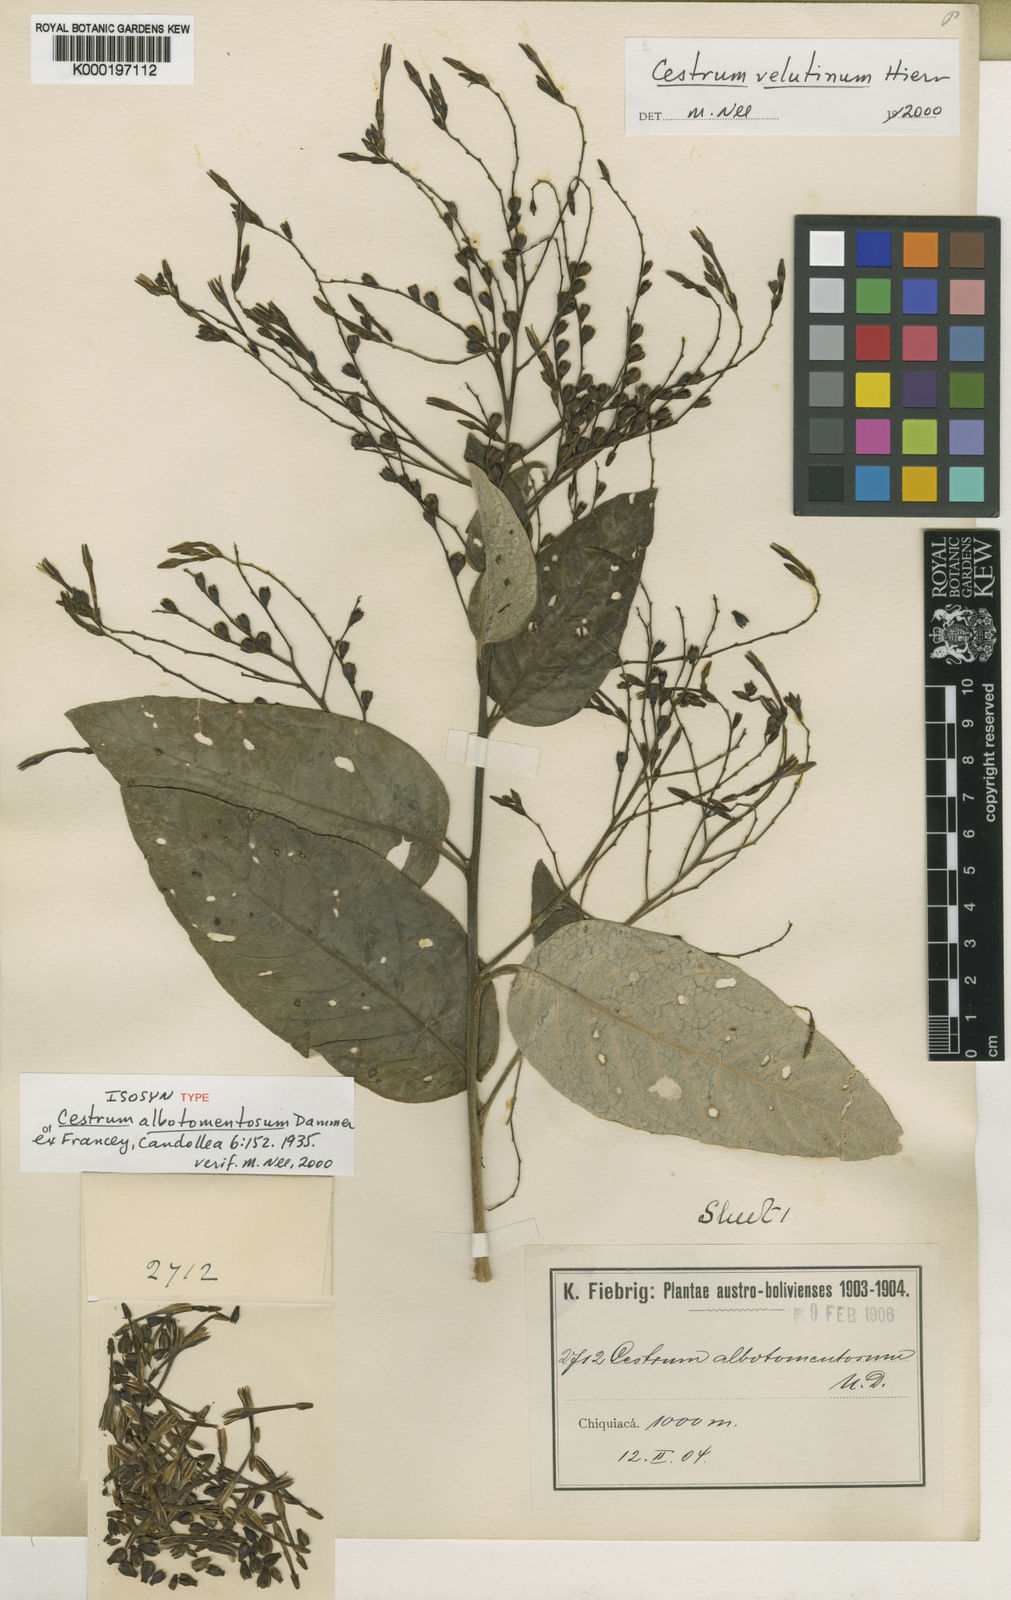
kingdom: Plantae
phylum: Tracheophyta
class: Magnoliopsida
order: Solanales
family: Solanaceae
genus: Cestrum
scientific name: Cestrum velutinum
